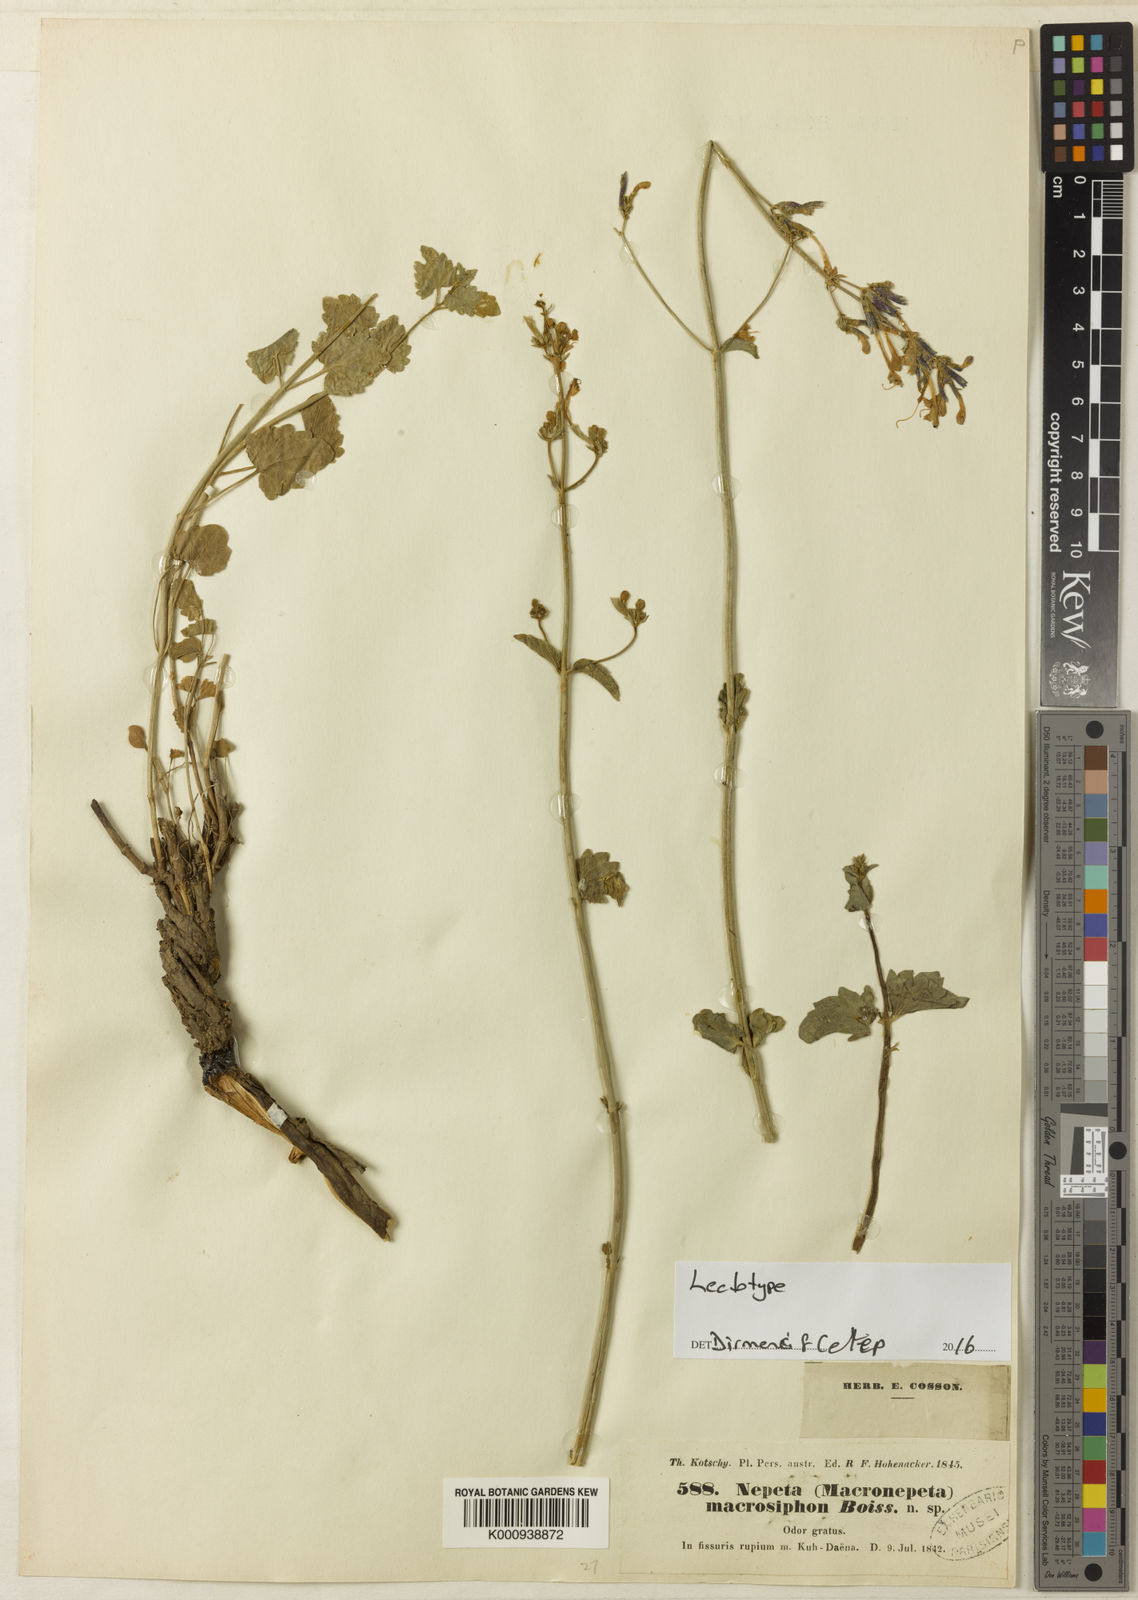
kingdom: Plantae
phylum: Tracheophyta
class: Magnoliopsida
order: Lamiales
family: Lamiaceae
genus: Nepeta
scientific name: Nepeta macrosiphon
